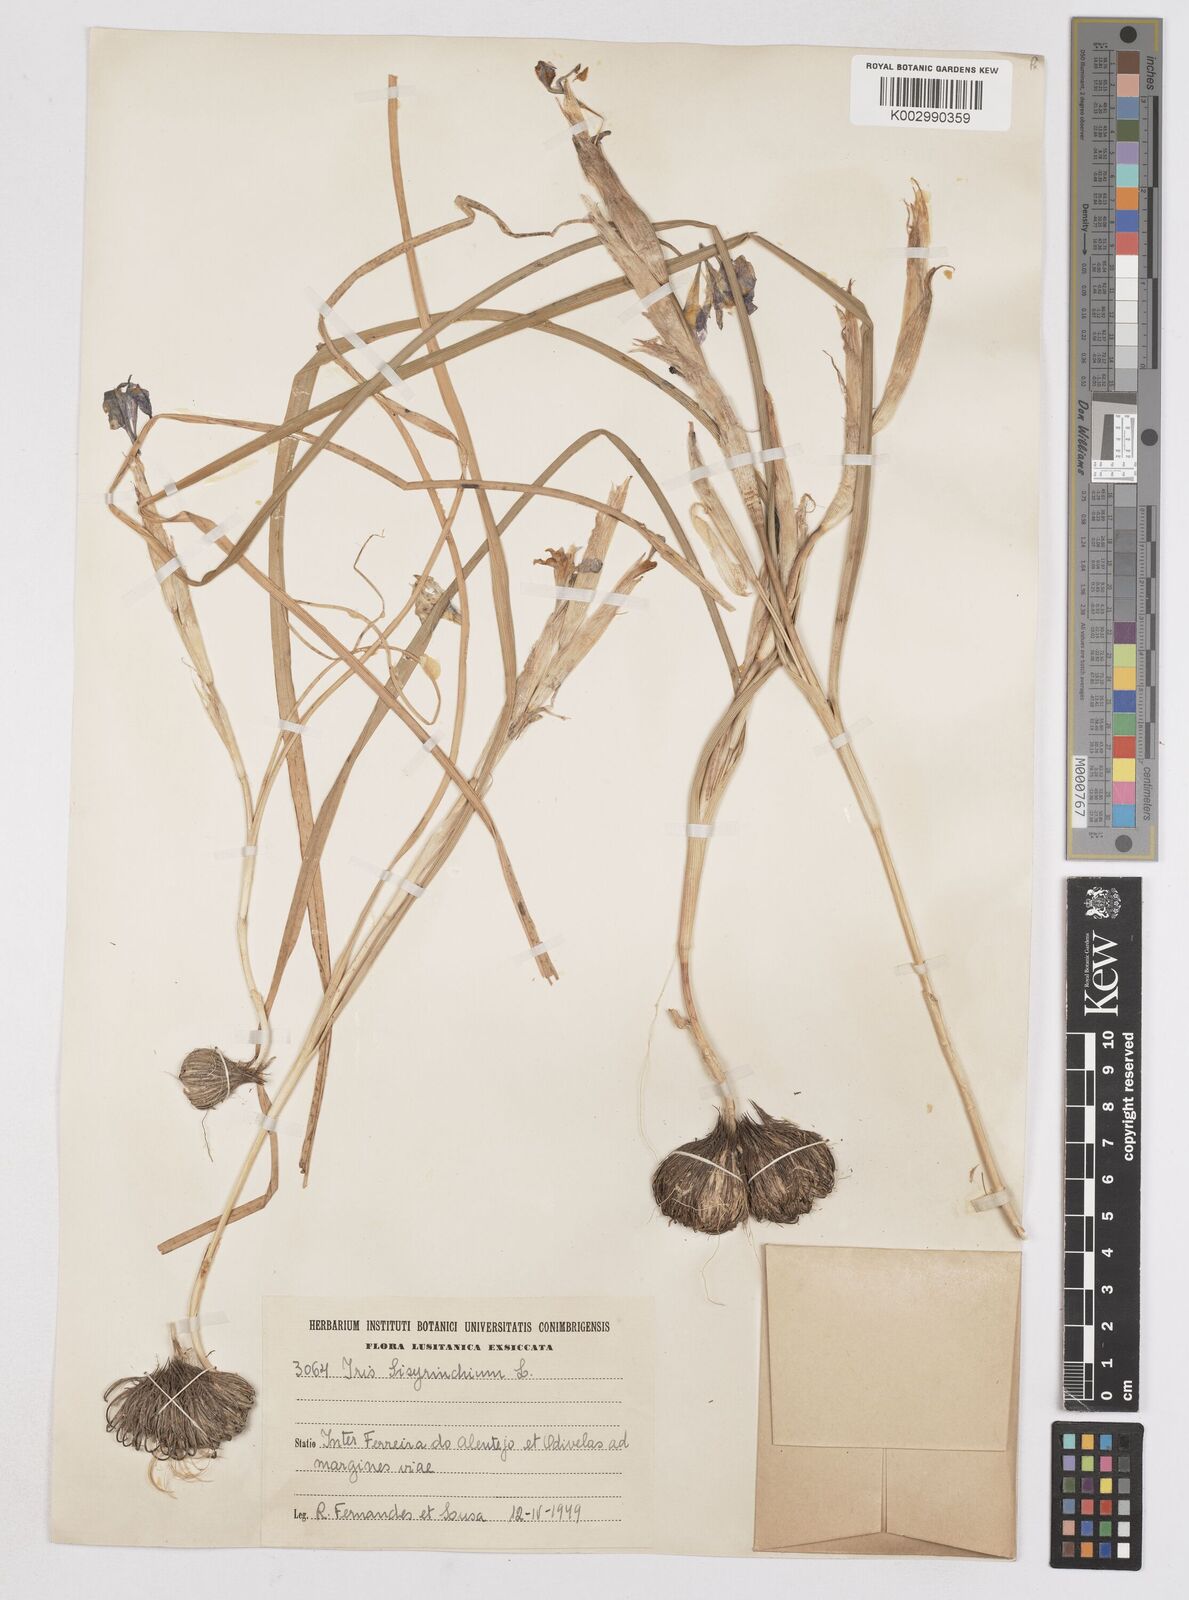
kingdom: Plantae
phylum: Tracheophyta
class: Liliopsida
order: Asparagales
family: Iridaceae
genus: Moraea
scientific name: Moraea sisyrinchium
